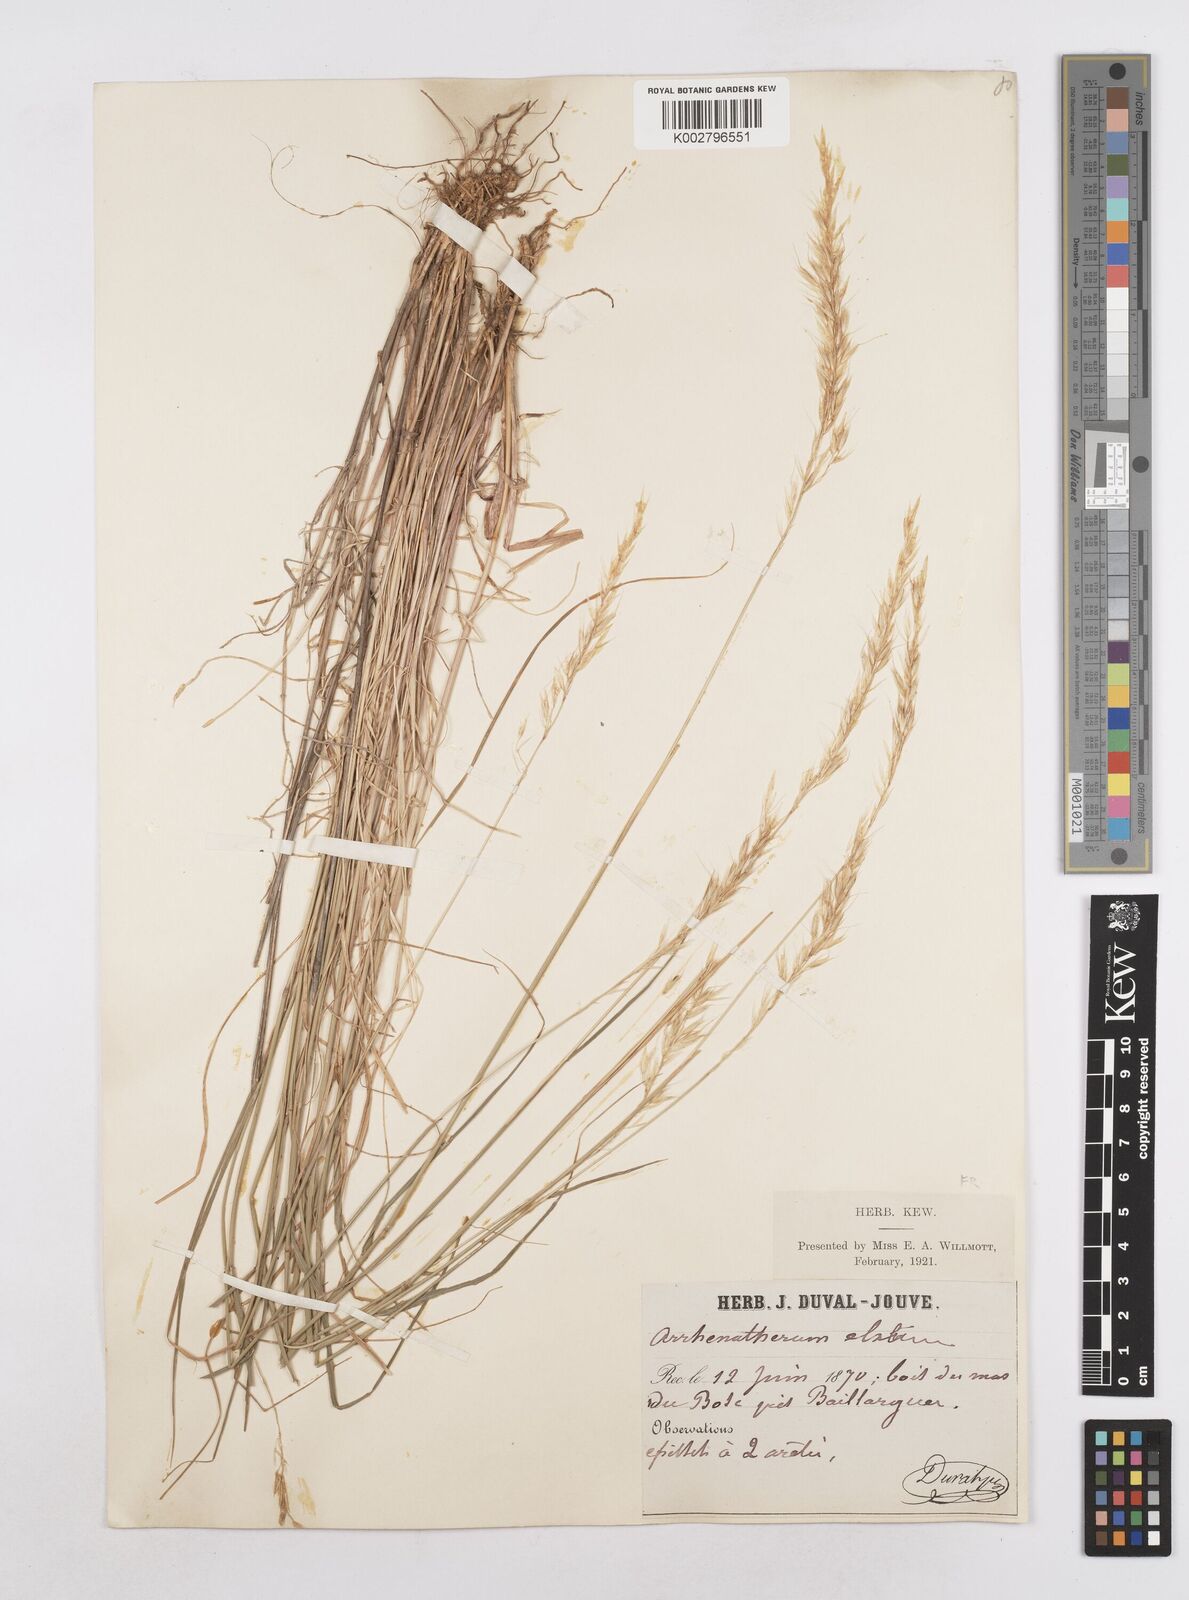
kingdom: Plantae
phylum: Tracheophyta
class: Liliopsida
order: Poales
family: Poaceae
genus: Arrhenatherum
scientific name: Arrhenatherum elatius
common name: Tall oatgrass
